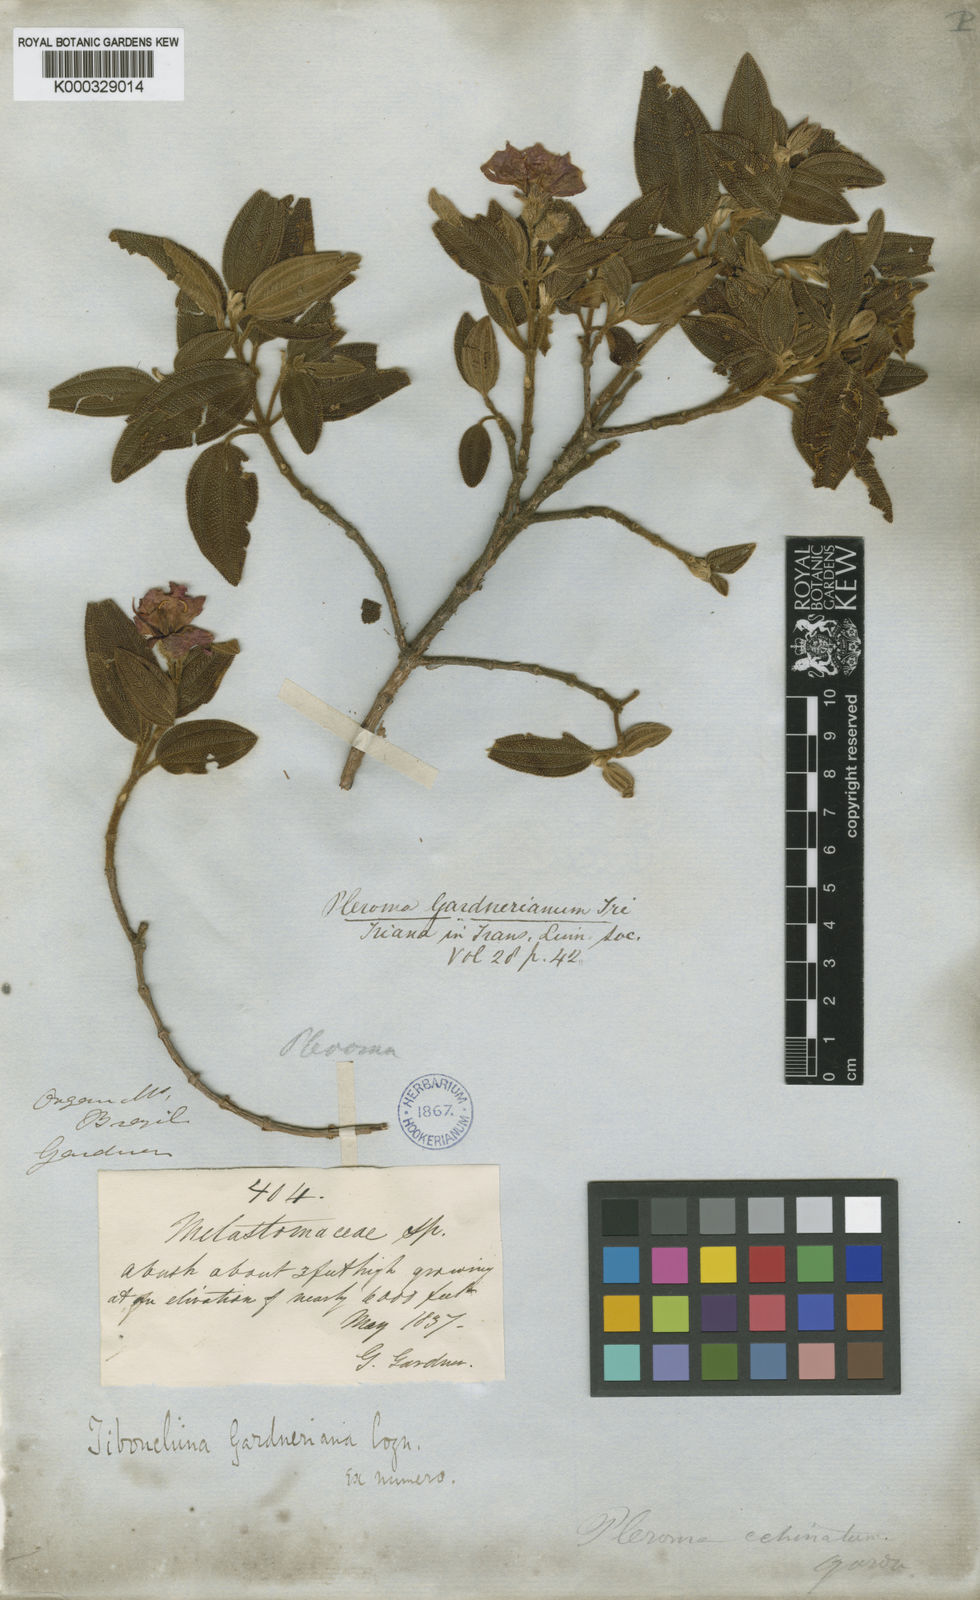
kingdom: Plantae
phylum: Tracheophyta
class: Magnoliopsida
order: Myrtales
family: Melastomataceae
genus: Pleroma
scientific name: Pleroma echinatum
